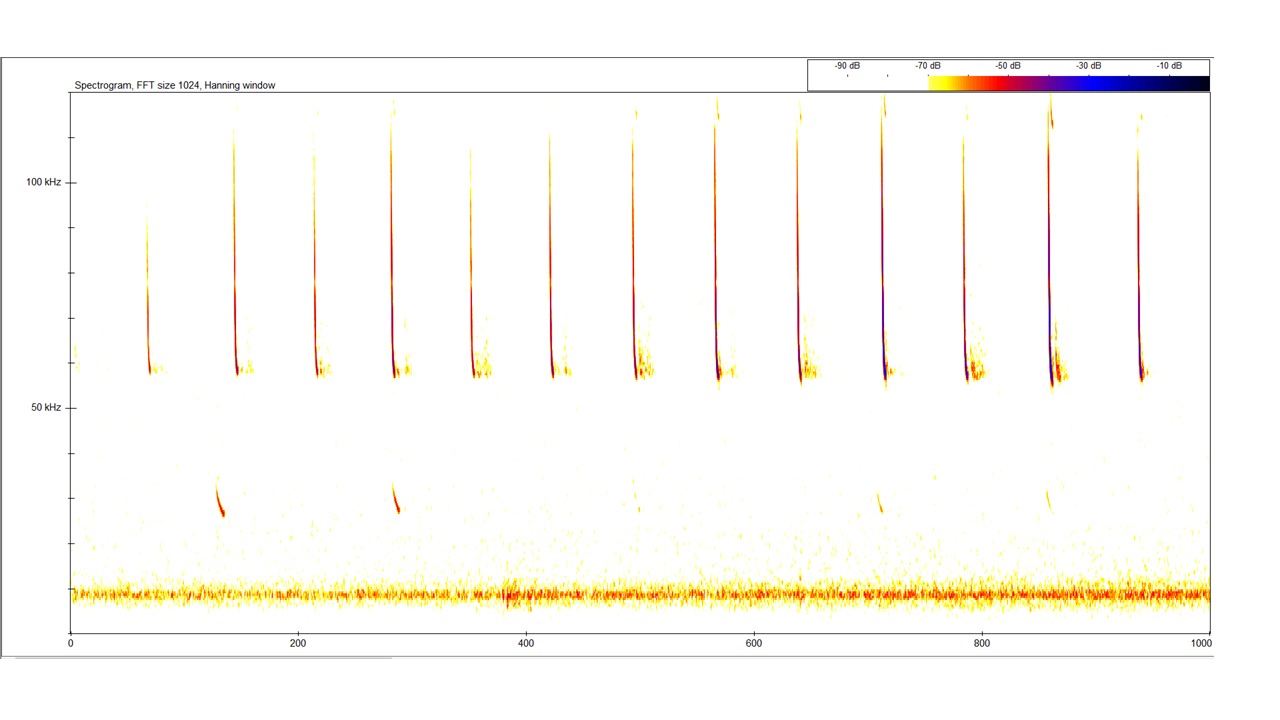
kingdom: Animalia
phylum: Chordata
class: Mammalia
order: Chiroptera
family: Vespertilionidae
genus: Pipistrellus
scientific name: Pipistrellus pygmaeus
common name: Dværgflagermus
